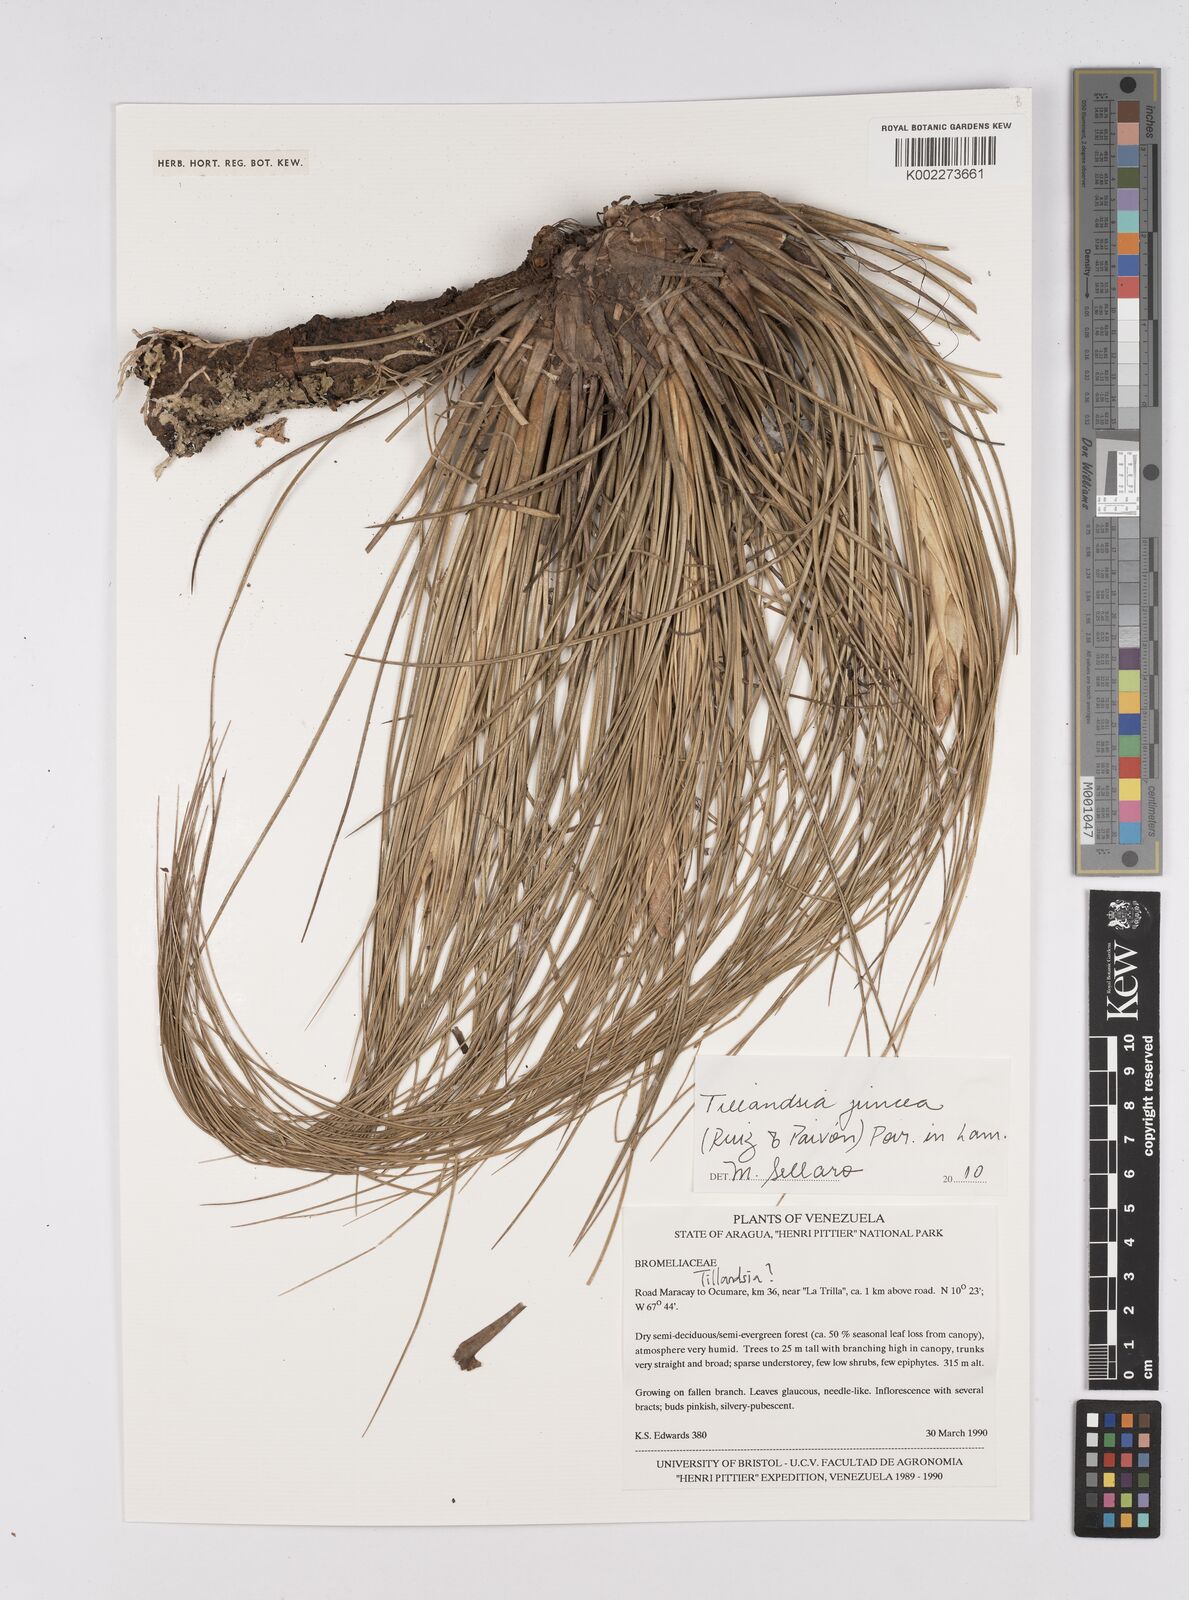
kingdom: Plantae
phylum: Tracheophyta
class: Liliopsida
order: Poales
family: Bromeliaceae
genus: Tillandsia
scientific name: Tillandsia juncea
